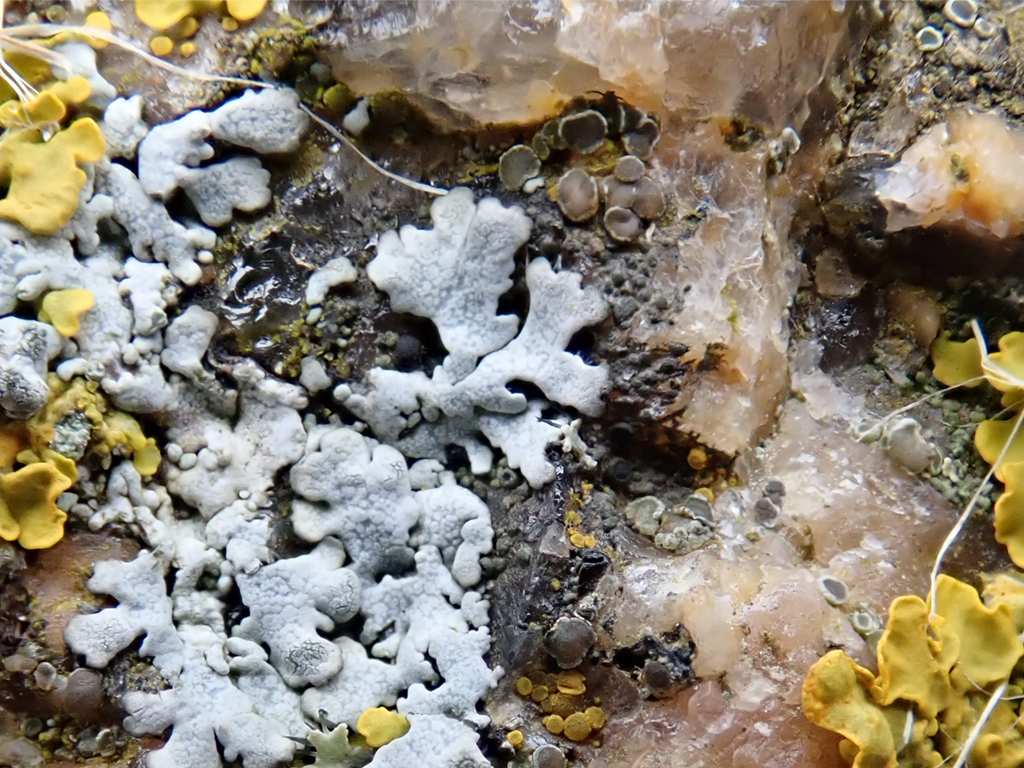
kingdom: Fungi
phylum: Ascomycota
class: Lecanoromycetes
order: Caliciales
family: Physciaceae
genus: Physcia
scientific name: Physcia caesia
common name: blågrå rosetlav
